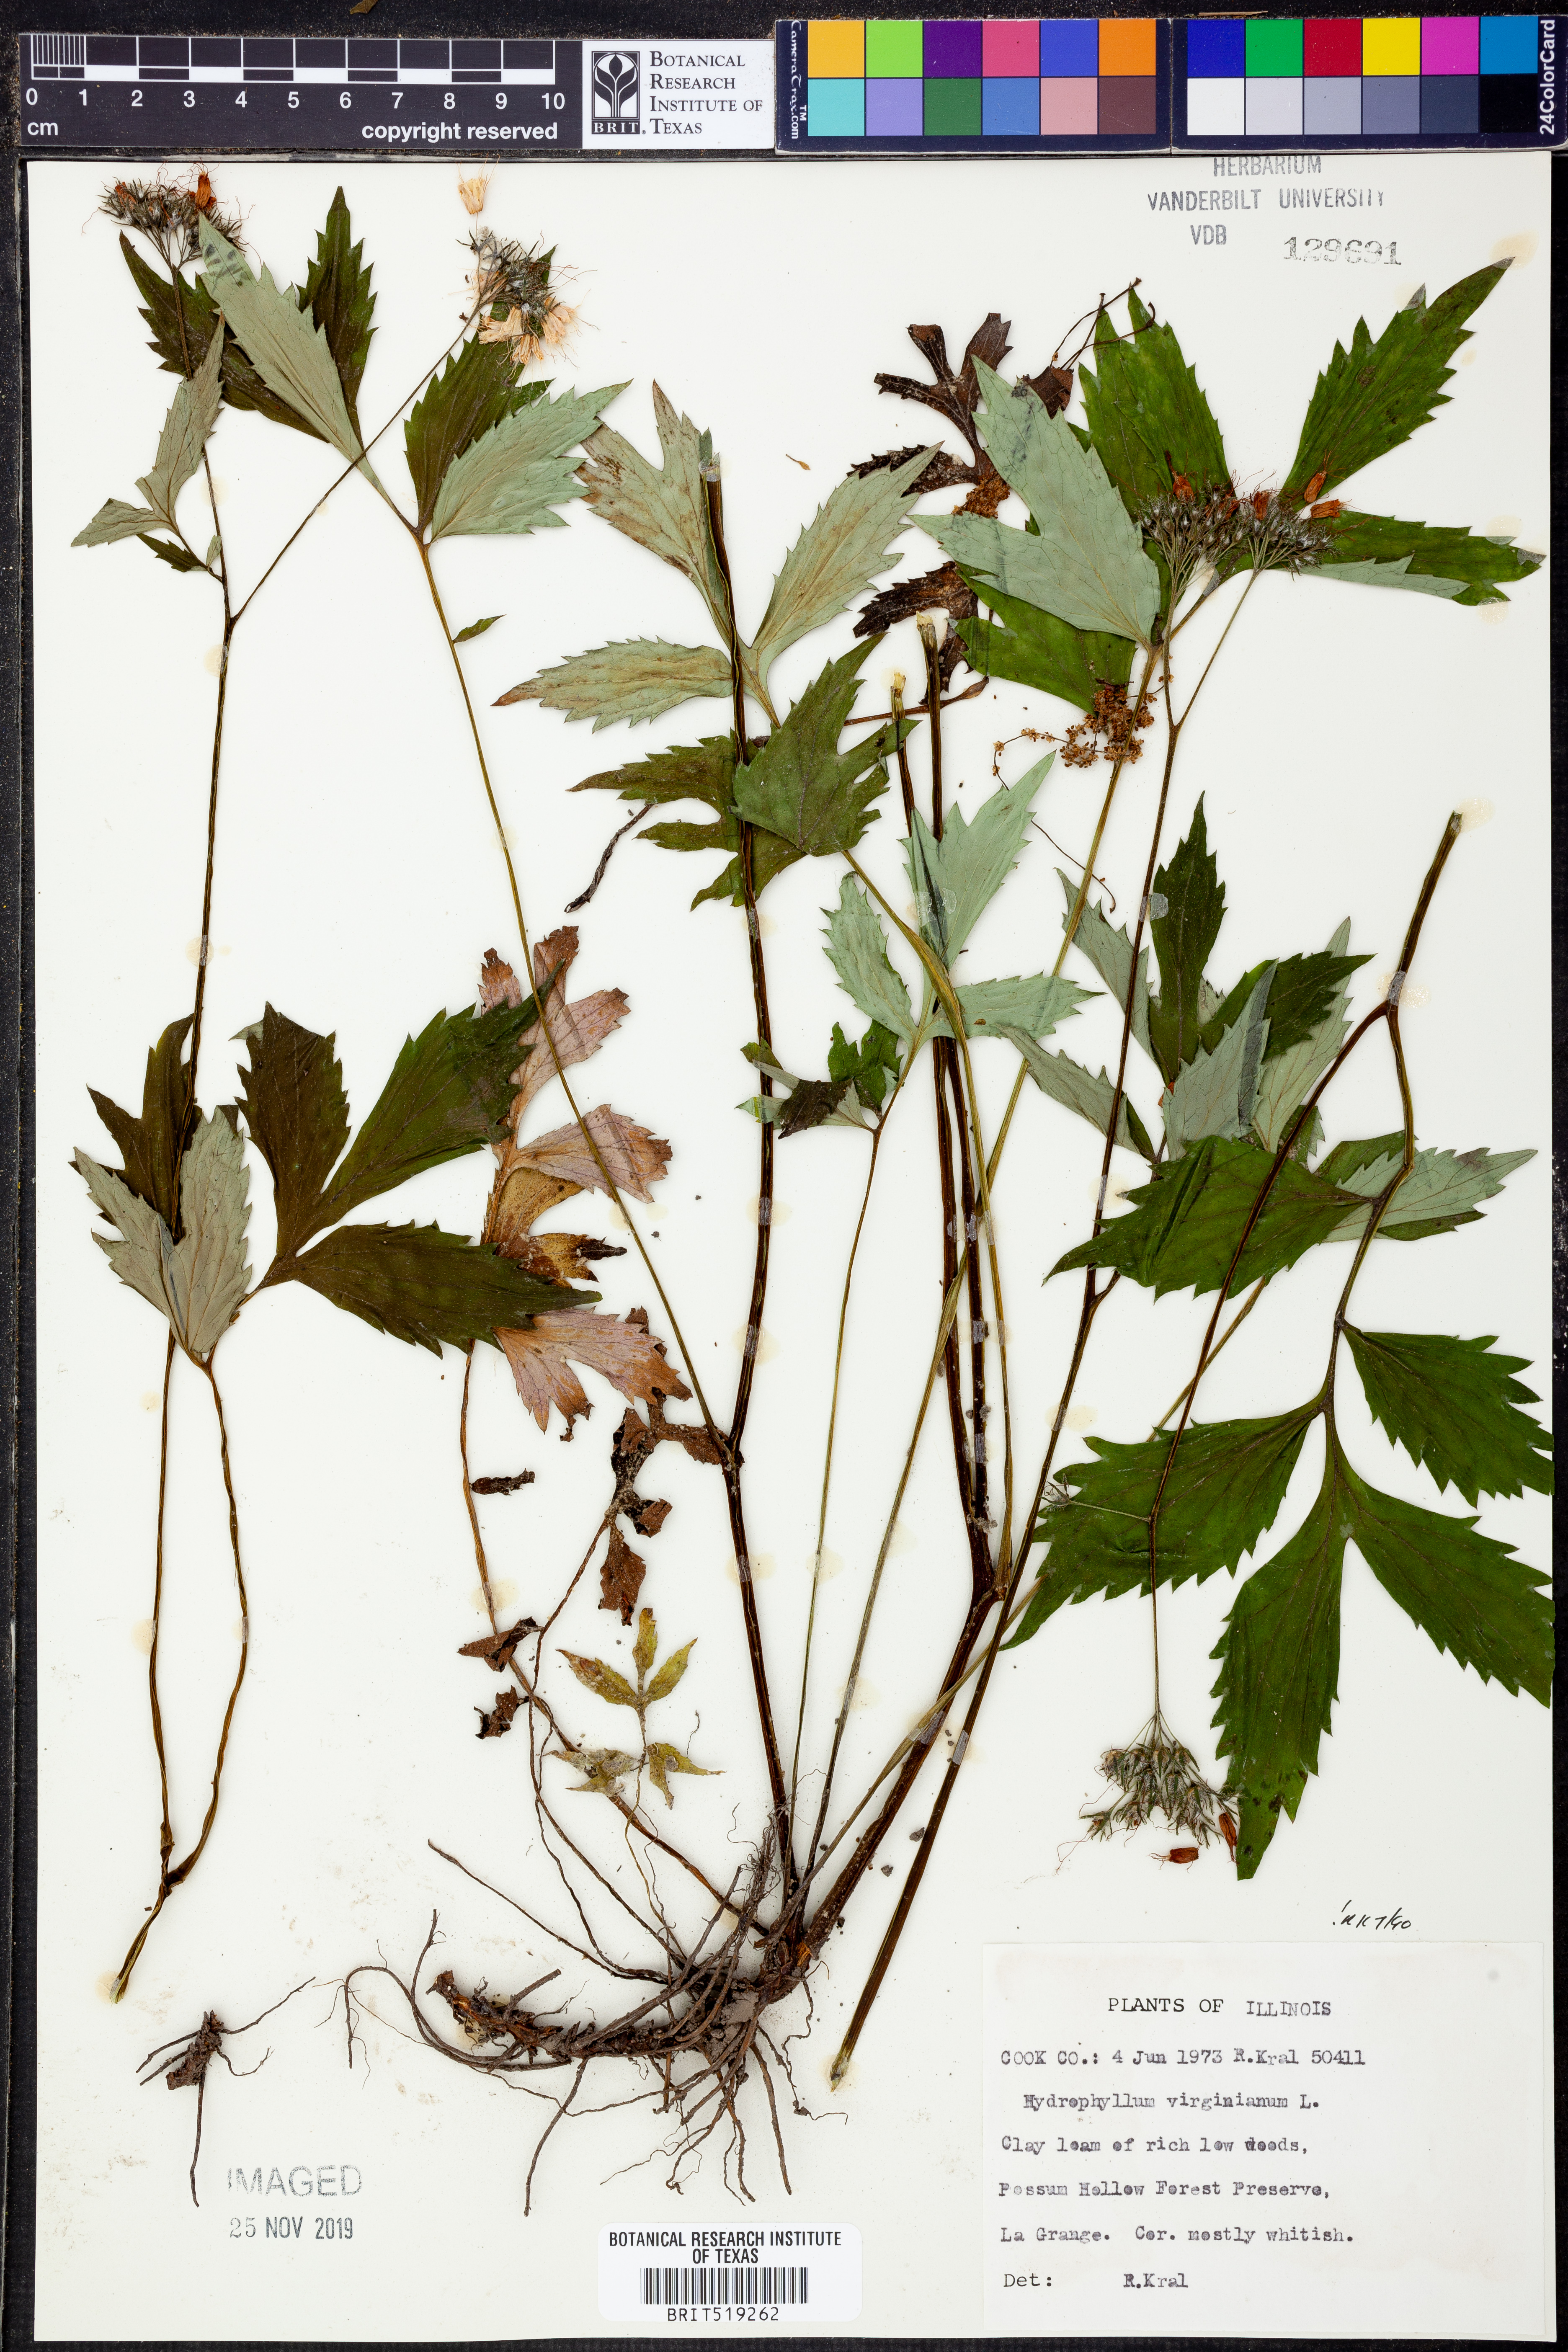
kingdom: Plantae
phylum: Tracheophyta
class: Magnoliopsida
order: Boraginales
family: Hydrophyllaceae
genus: Hydrophyllum
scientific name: Hydrophyllum virginianum
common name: Virginia waterleaf
